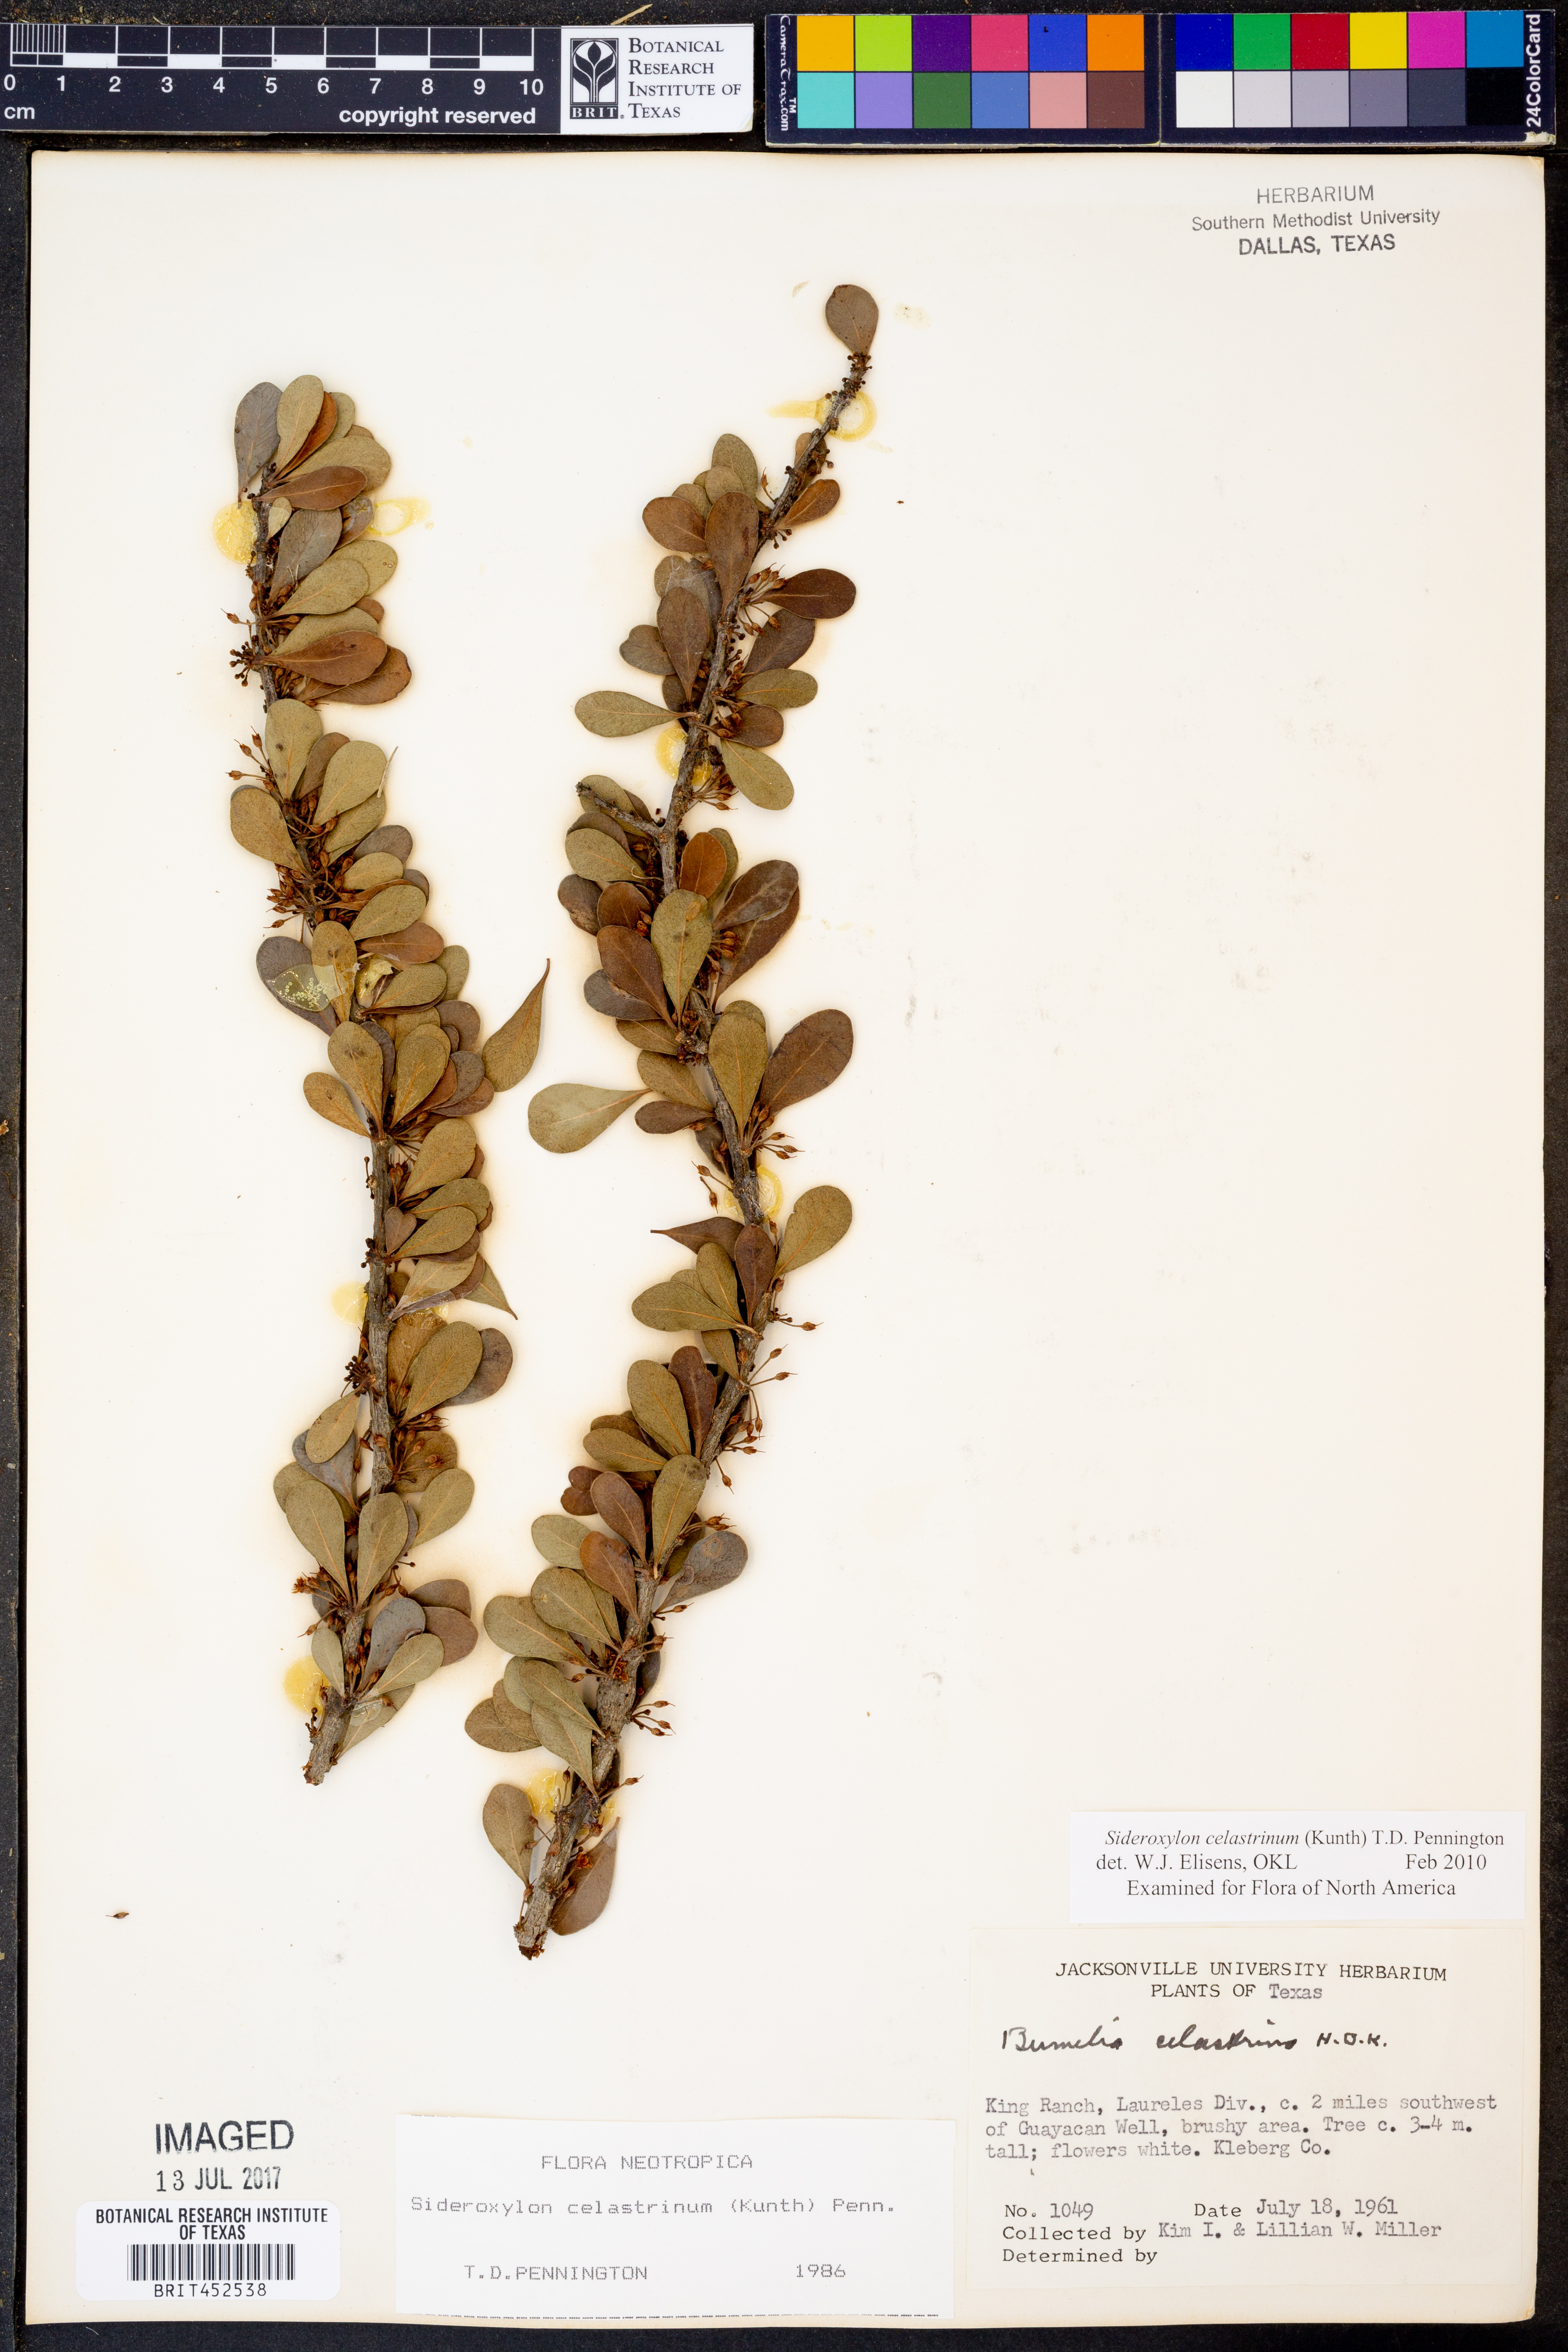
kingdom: Plantae
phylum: Tracheophyta
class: Magnoliopsida
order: Ericales
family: Sapotaceae
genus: Sideroxylon
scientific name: Sideroxylon celastrinum
